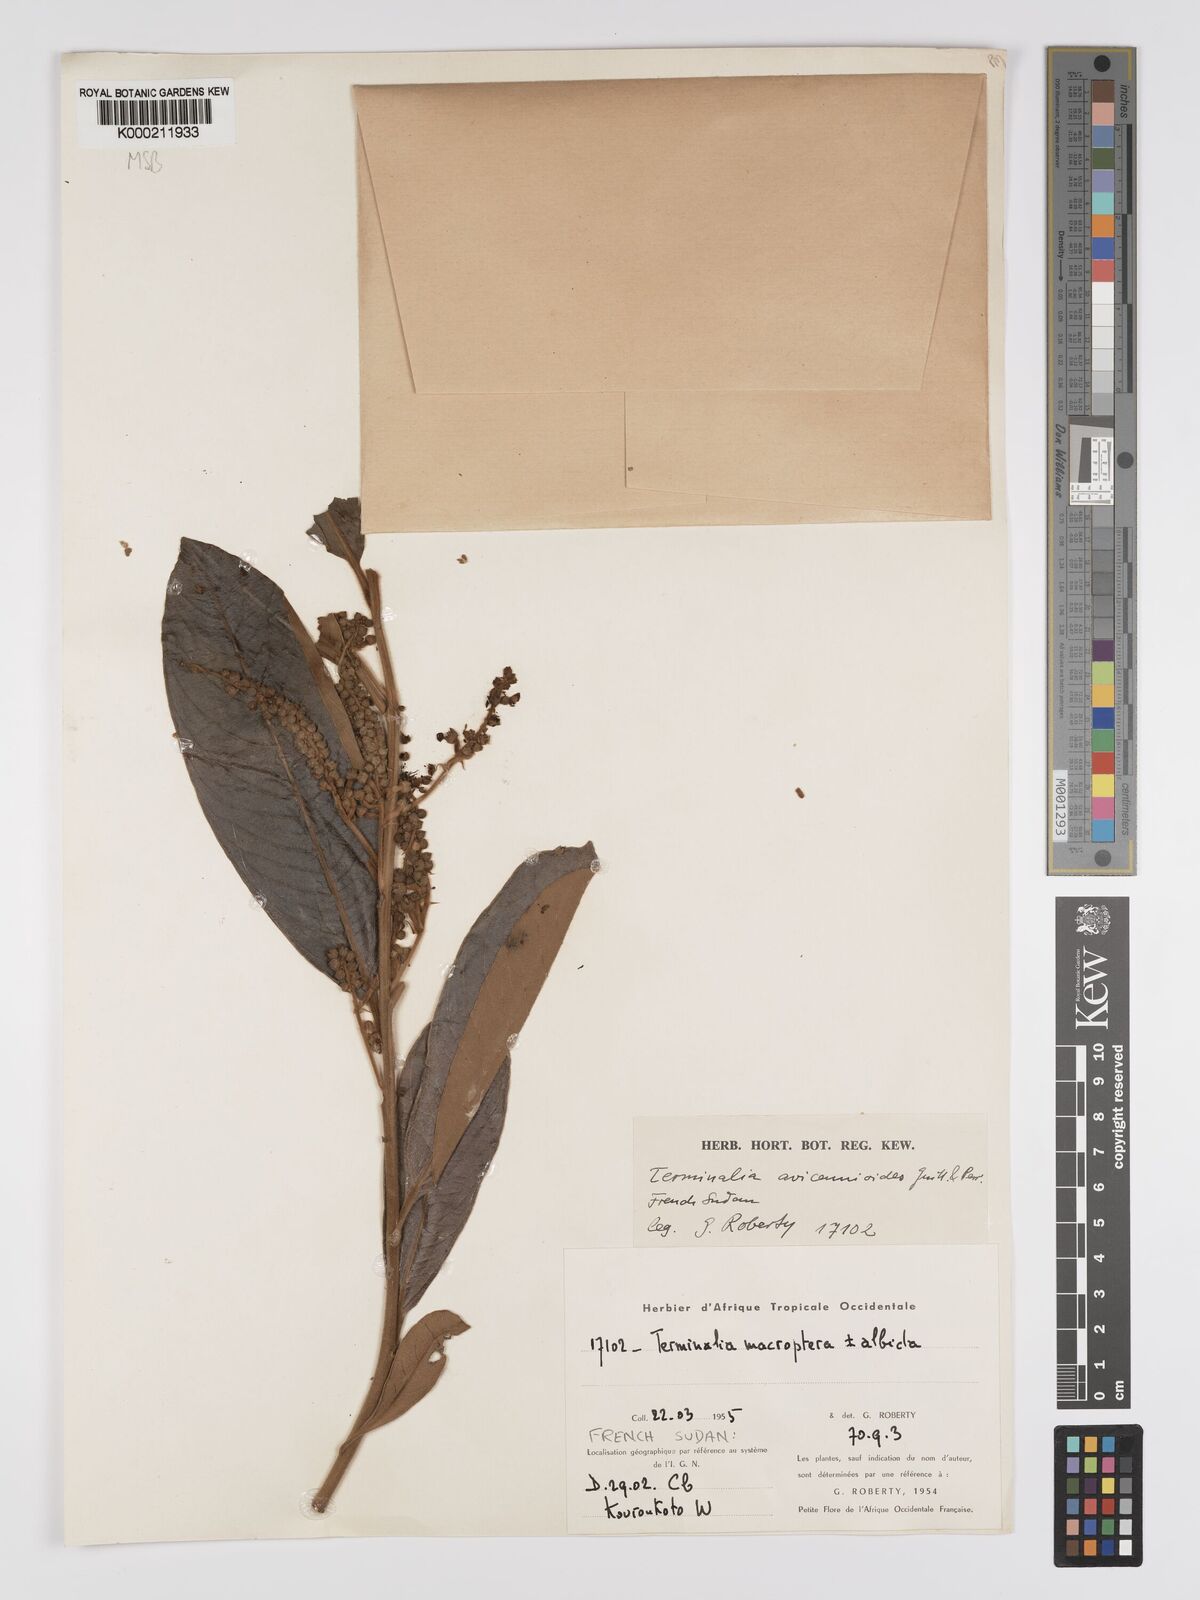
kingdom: Plantae
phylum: Tracheophyta
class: Magnoliopsida
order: Myrtales
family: Combretaceae
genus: Terminalia
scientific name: Terminalia avicennioides
